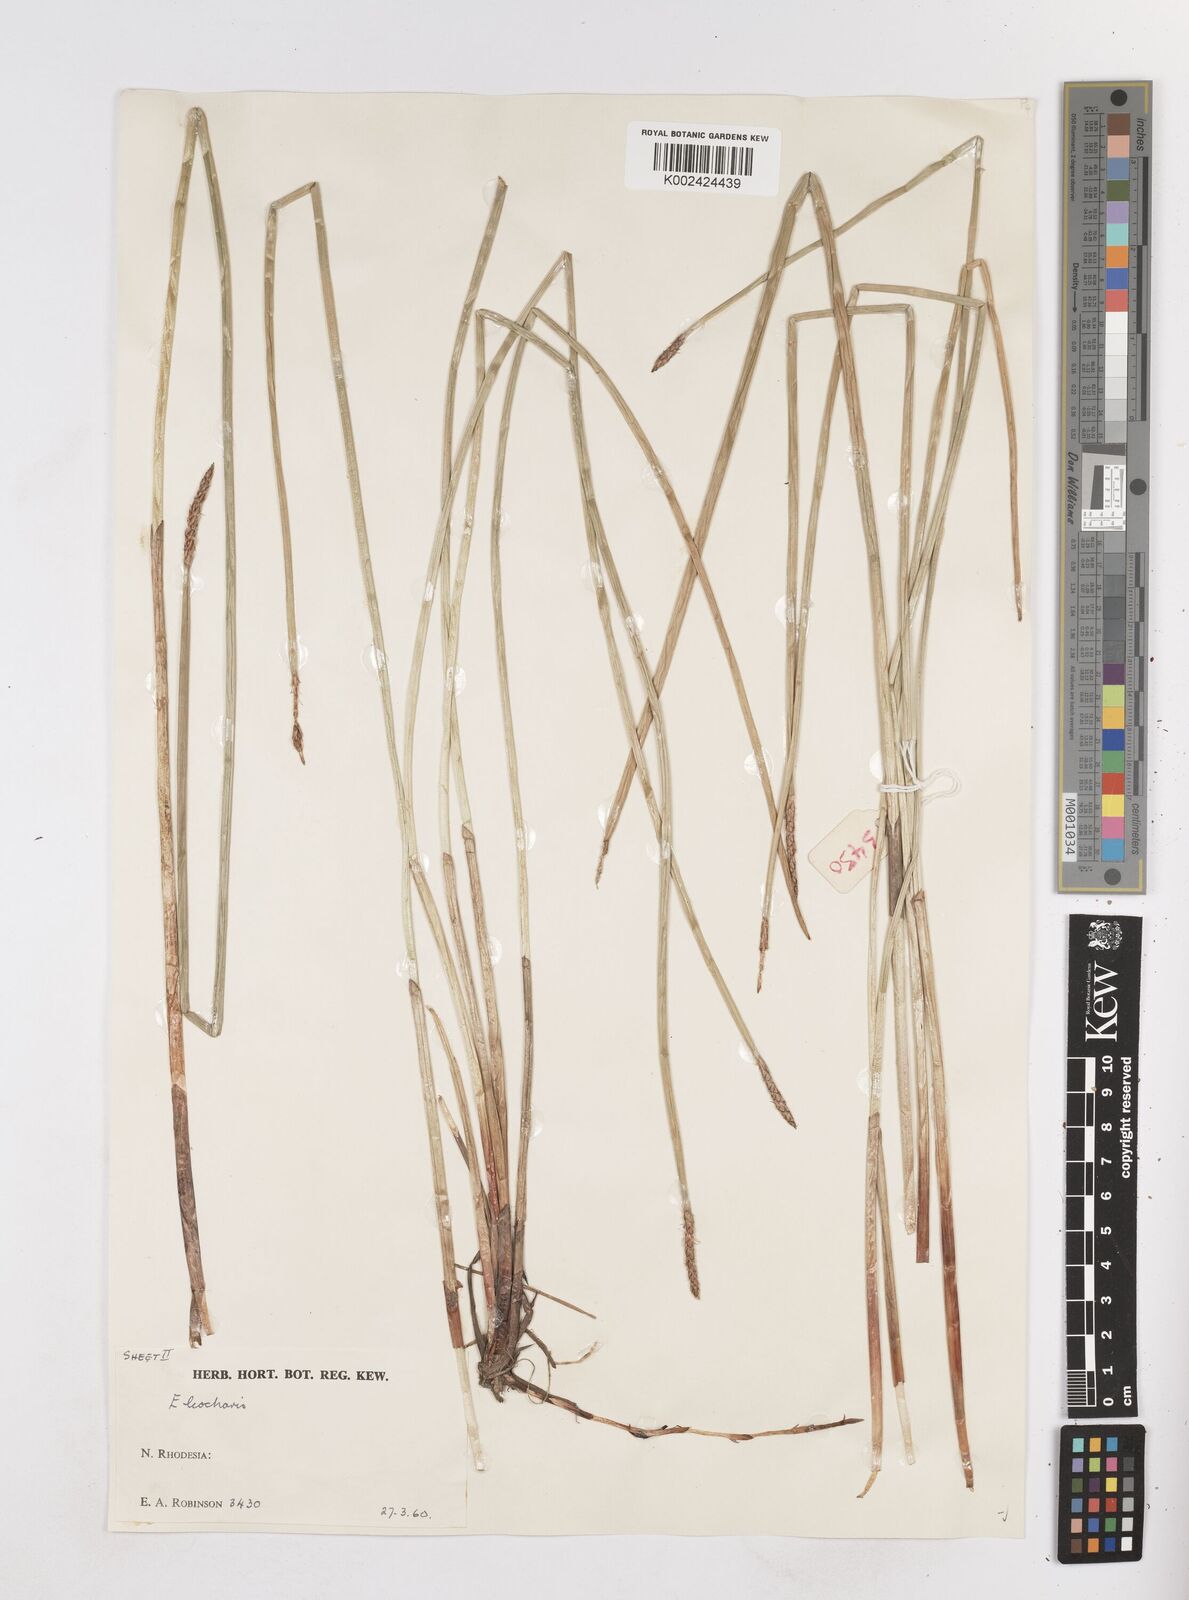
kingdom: Plantae
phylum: Tracheophyta
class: Liliopsida
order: Poales
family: Cyperaceae
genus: Eleocharis
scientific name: Eleocharis
